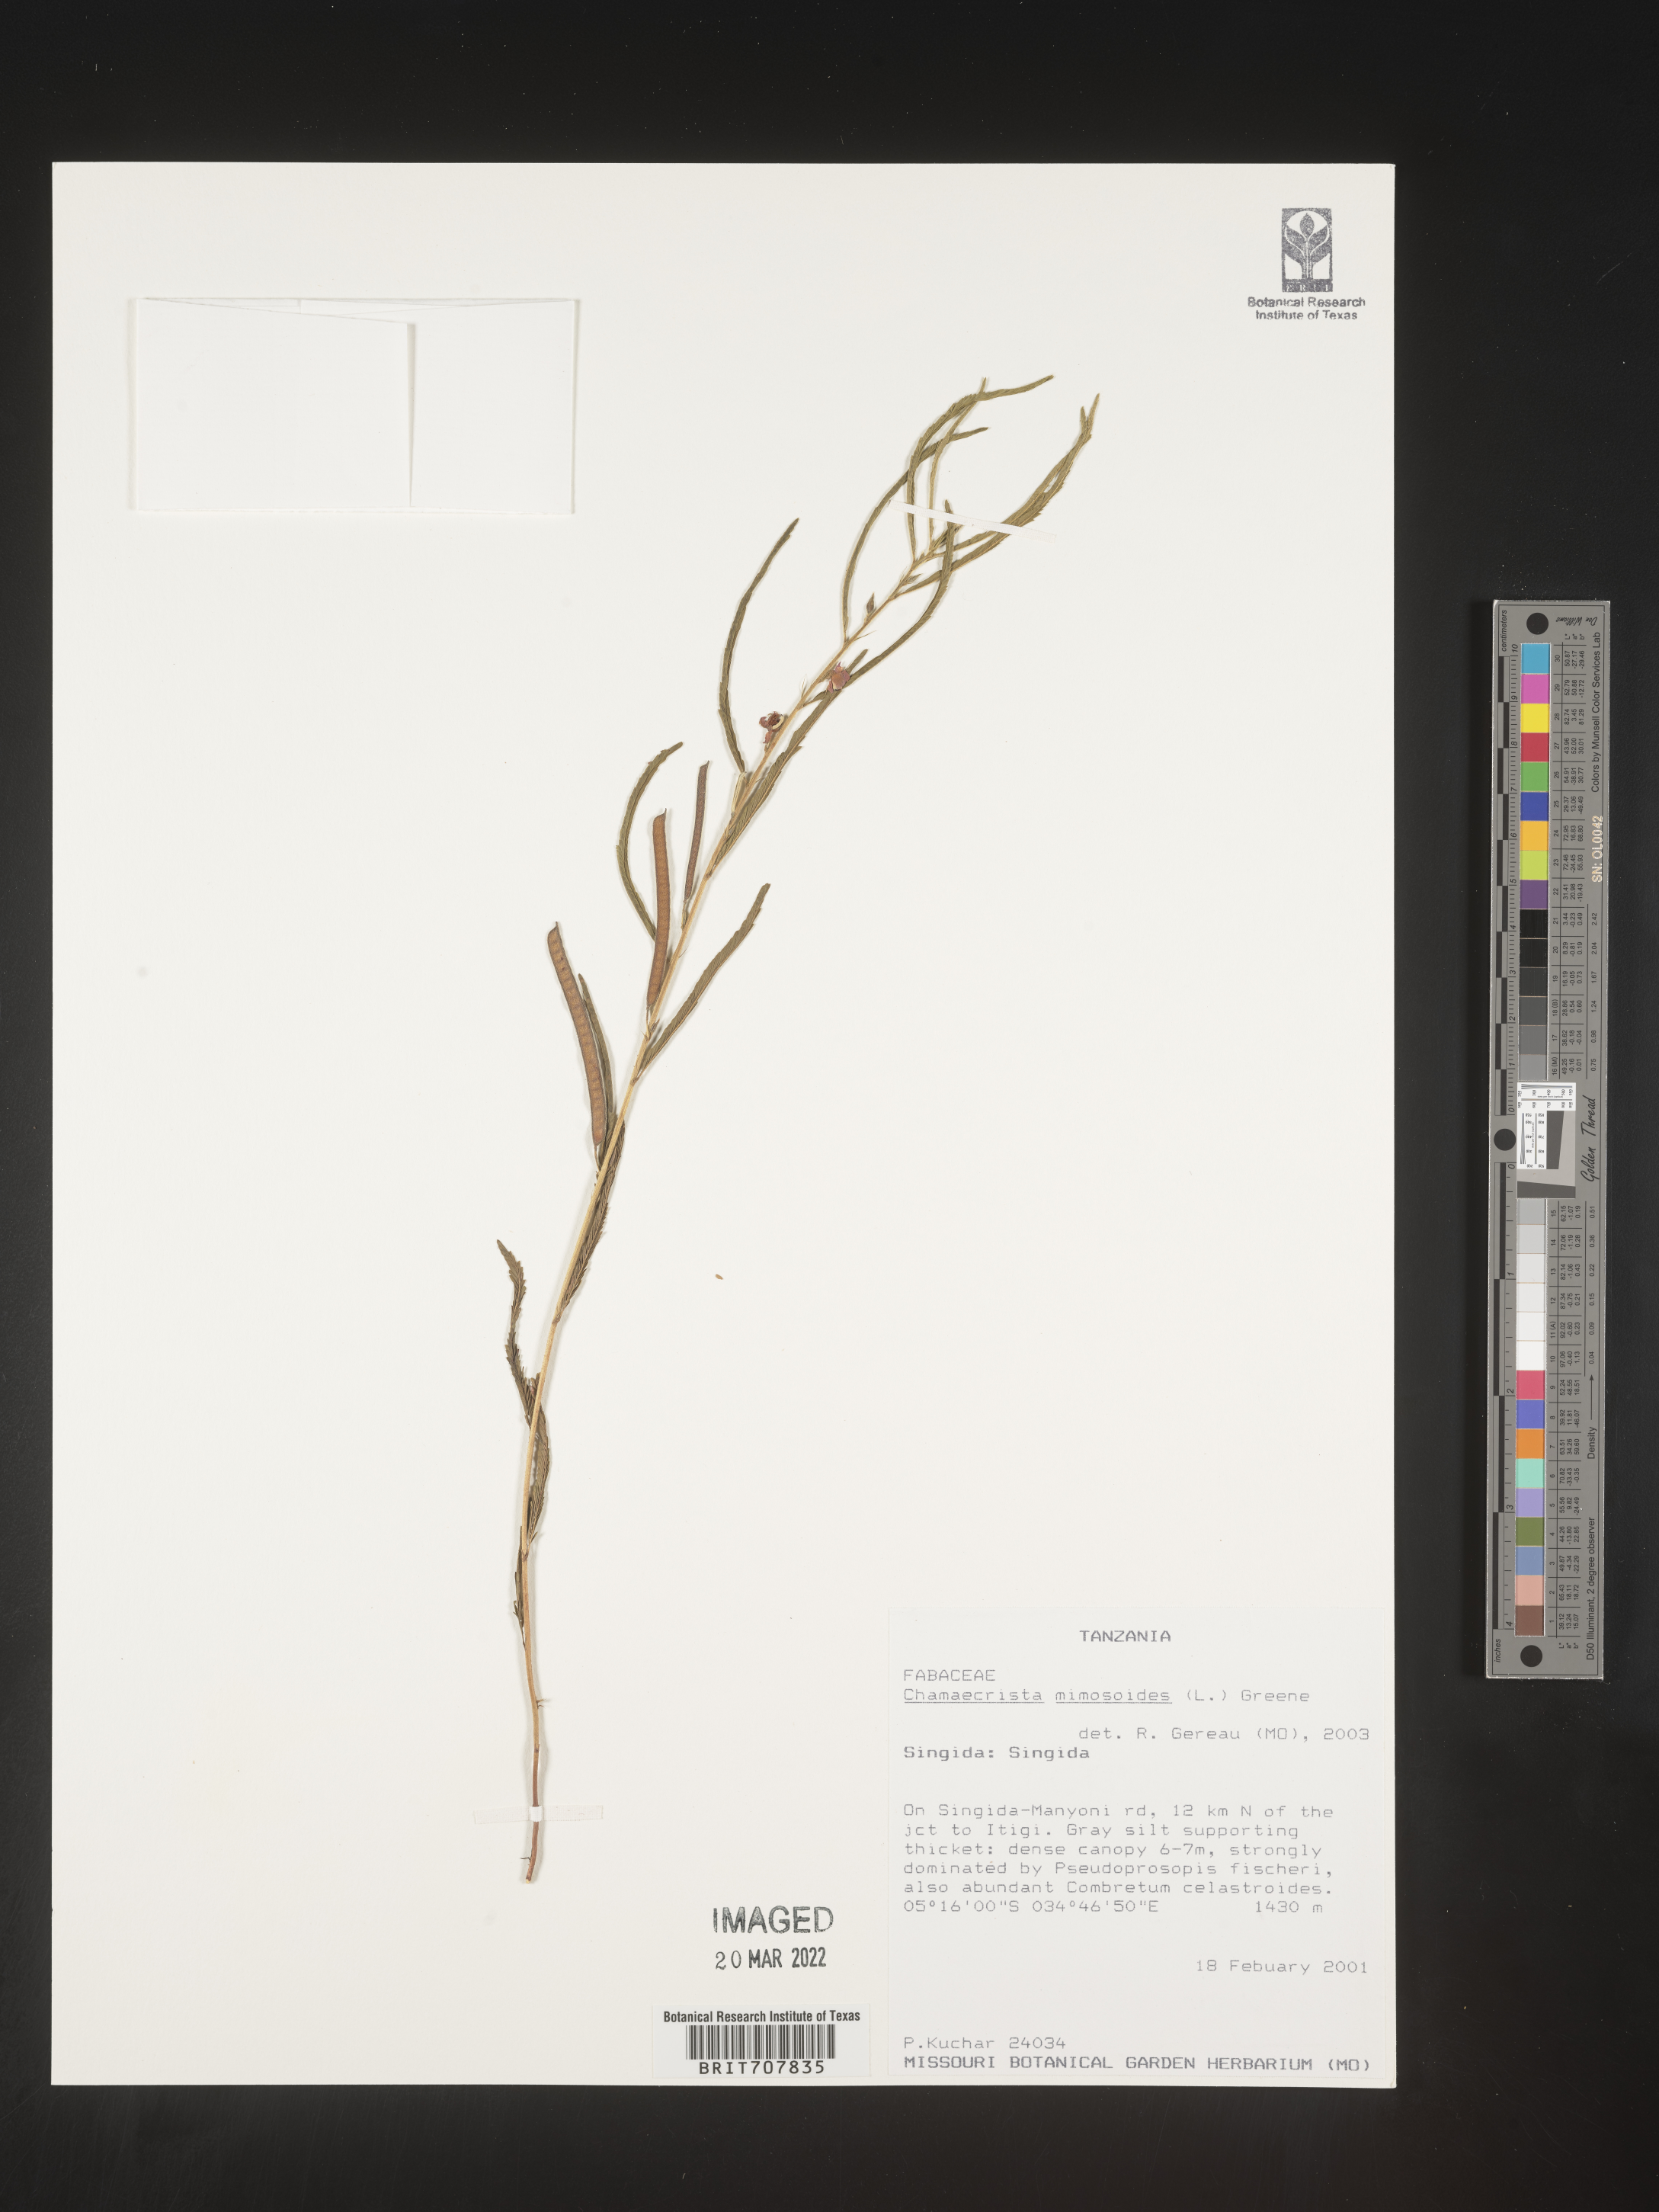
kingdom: Plantae
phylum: Tracheophyta
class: Magnoliopsida
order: Fabales
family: Fabaceae
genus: Chamaecrista
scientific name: Chamaecrista
